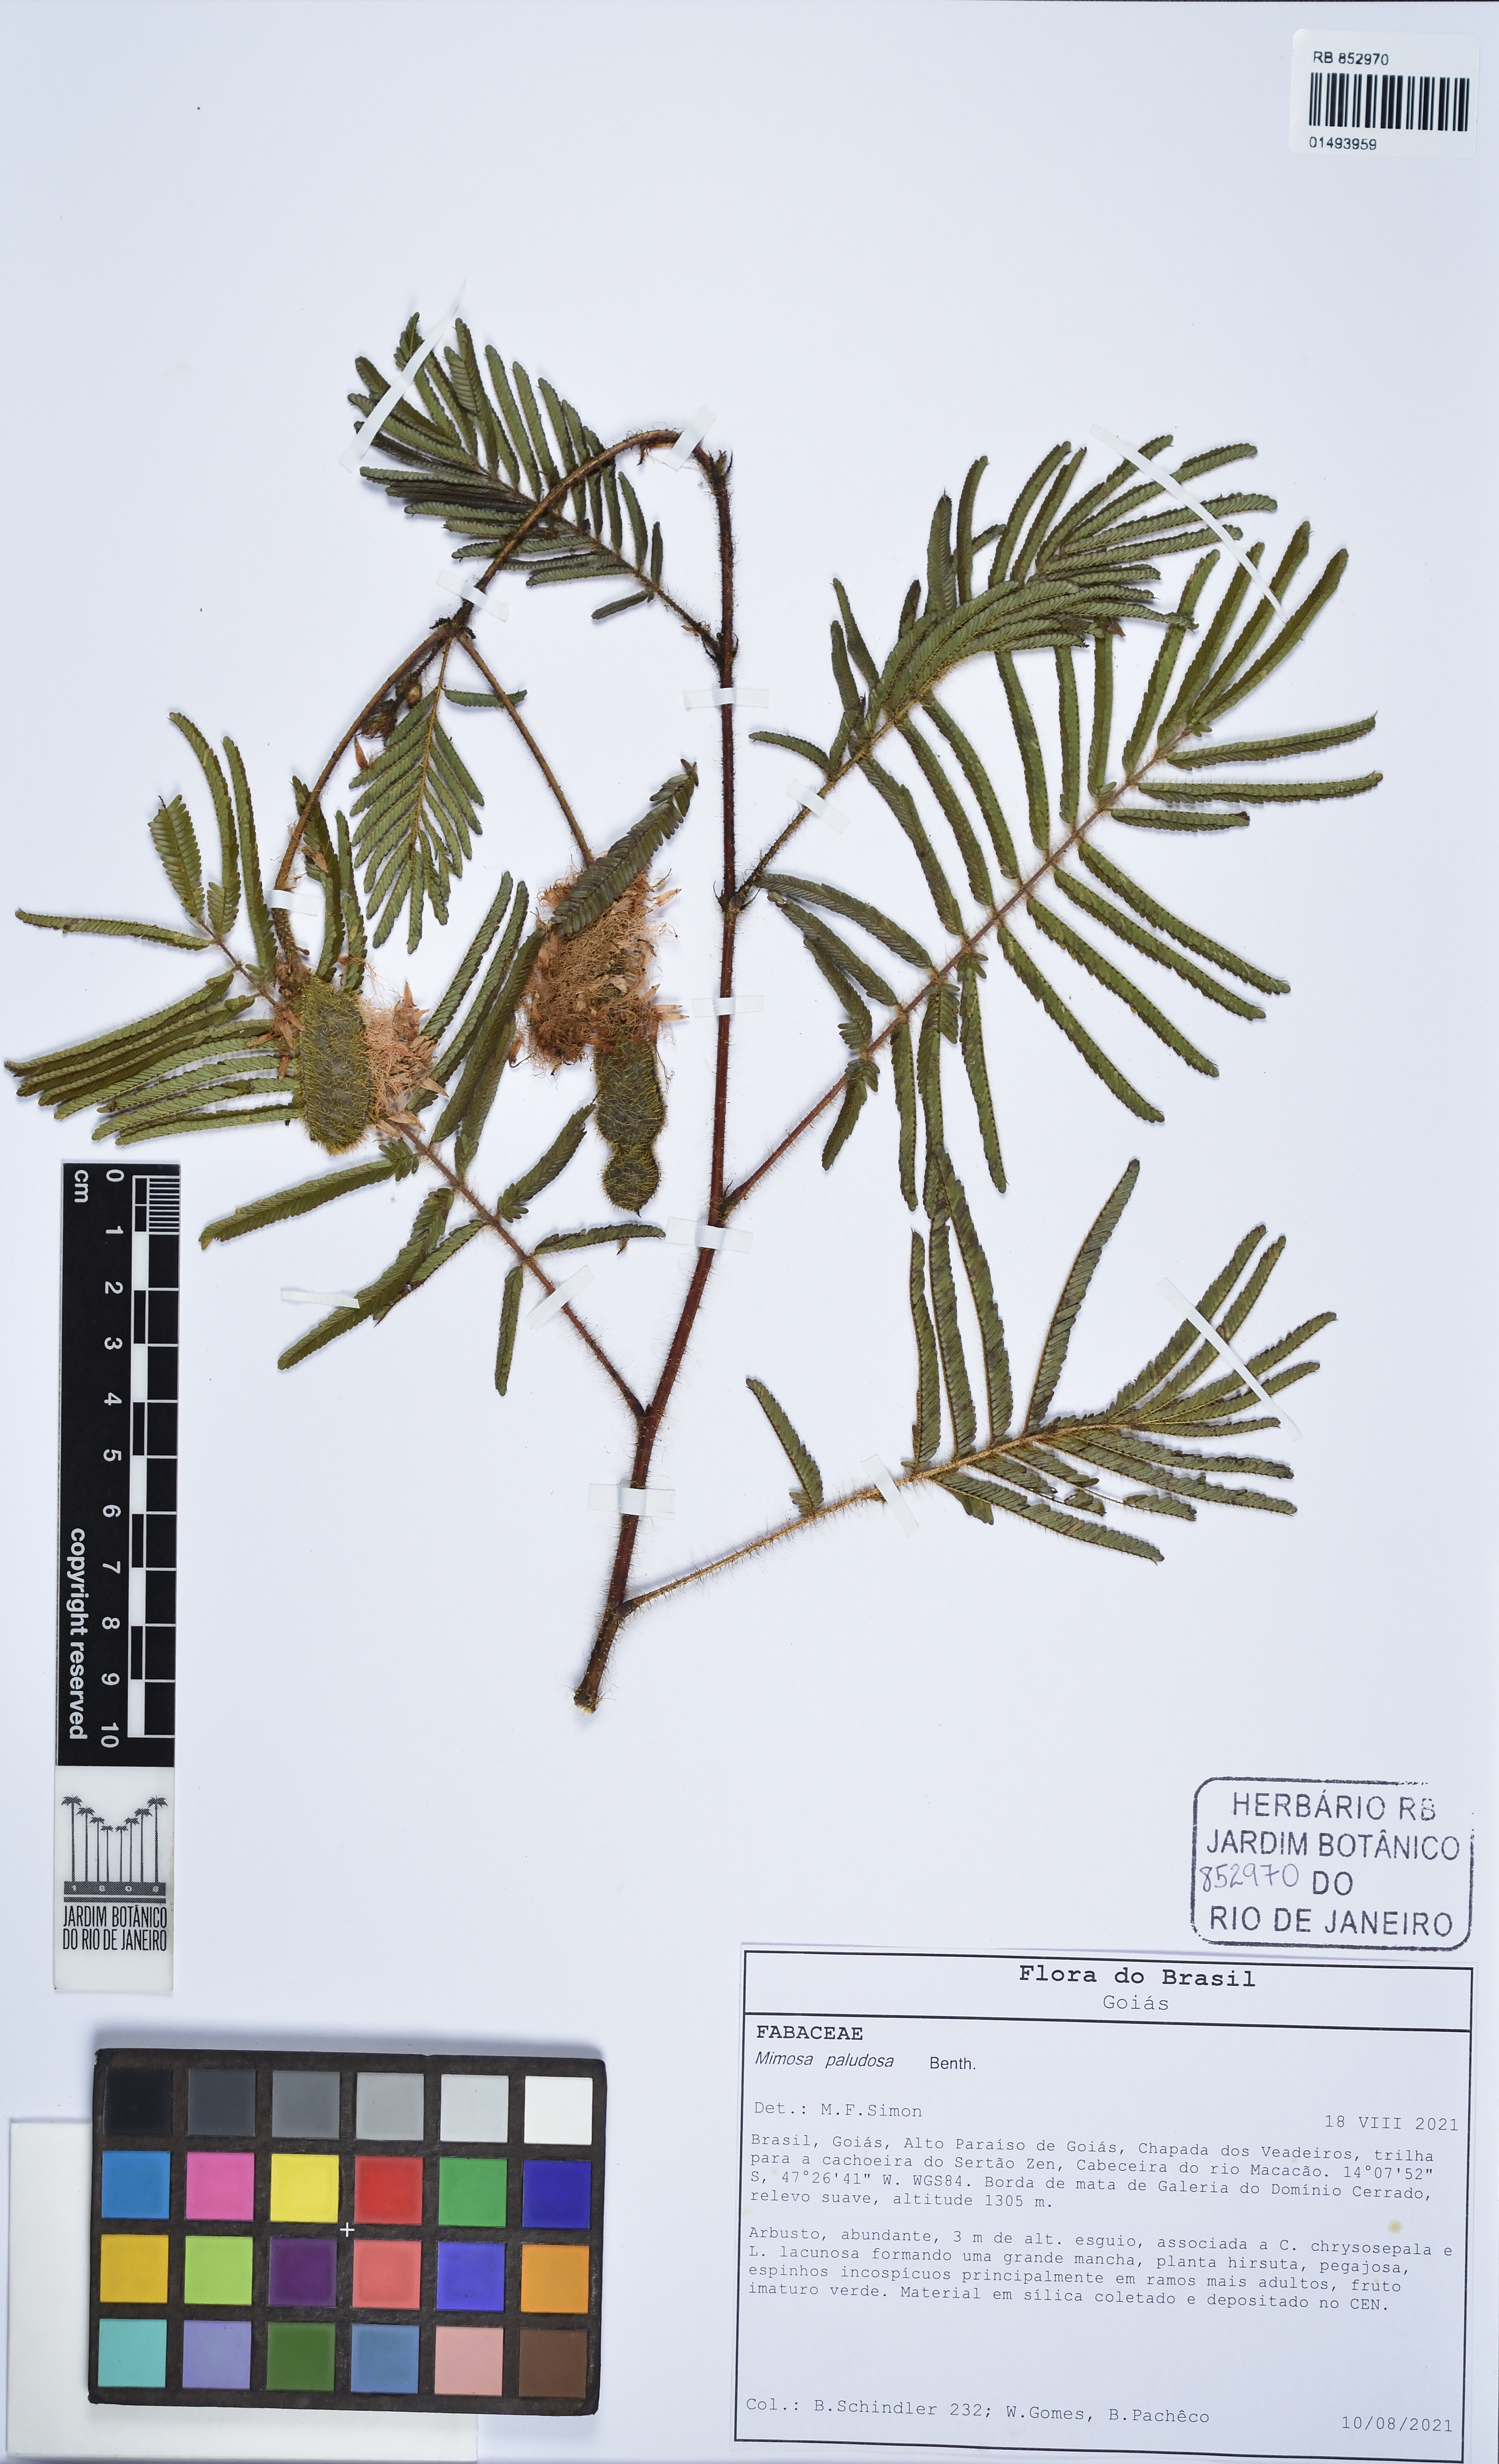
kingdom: Plantae
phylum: Tracheophyta
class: Magnoliopsida
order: Fabales
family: Fabaceae
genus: Mimosa
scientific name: Mimosa paludosa
